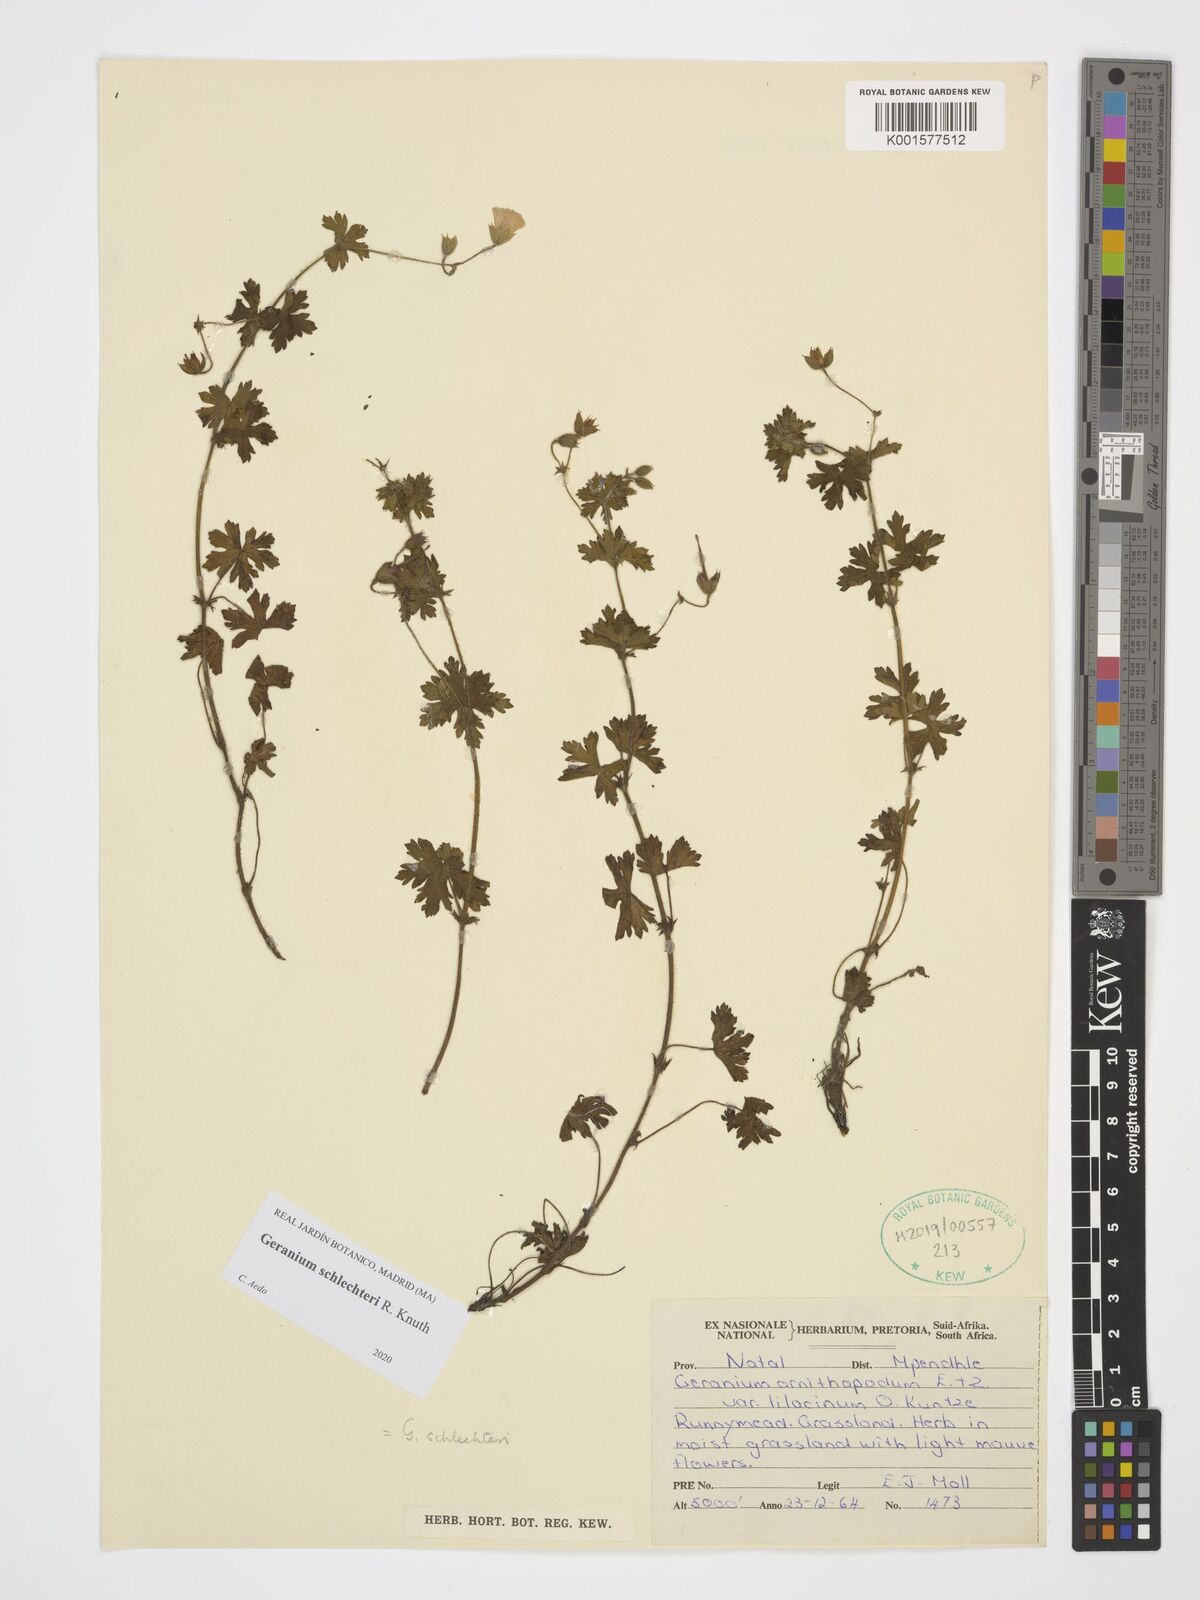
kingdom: Plantae
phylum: Tracheophyta
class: Magnoliopsida
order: Geraniales
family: Geraniaceae
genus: Geranium
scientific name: Geranium schlechteri
